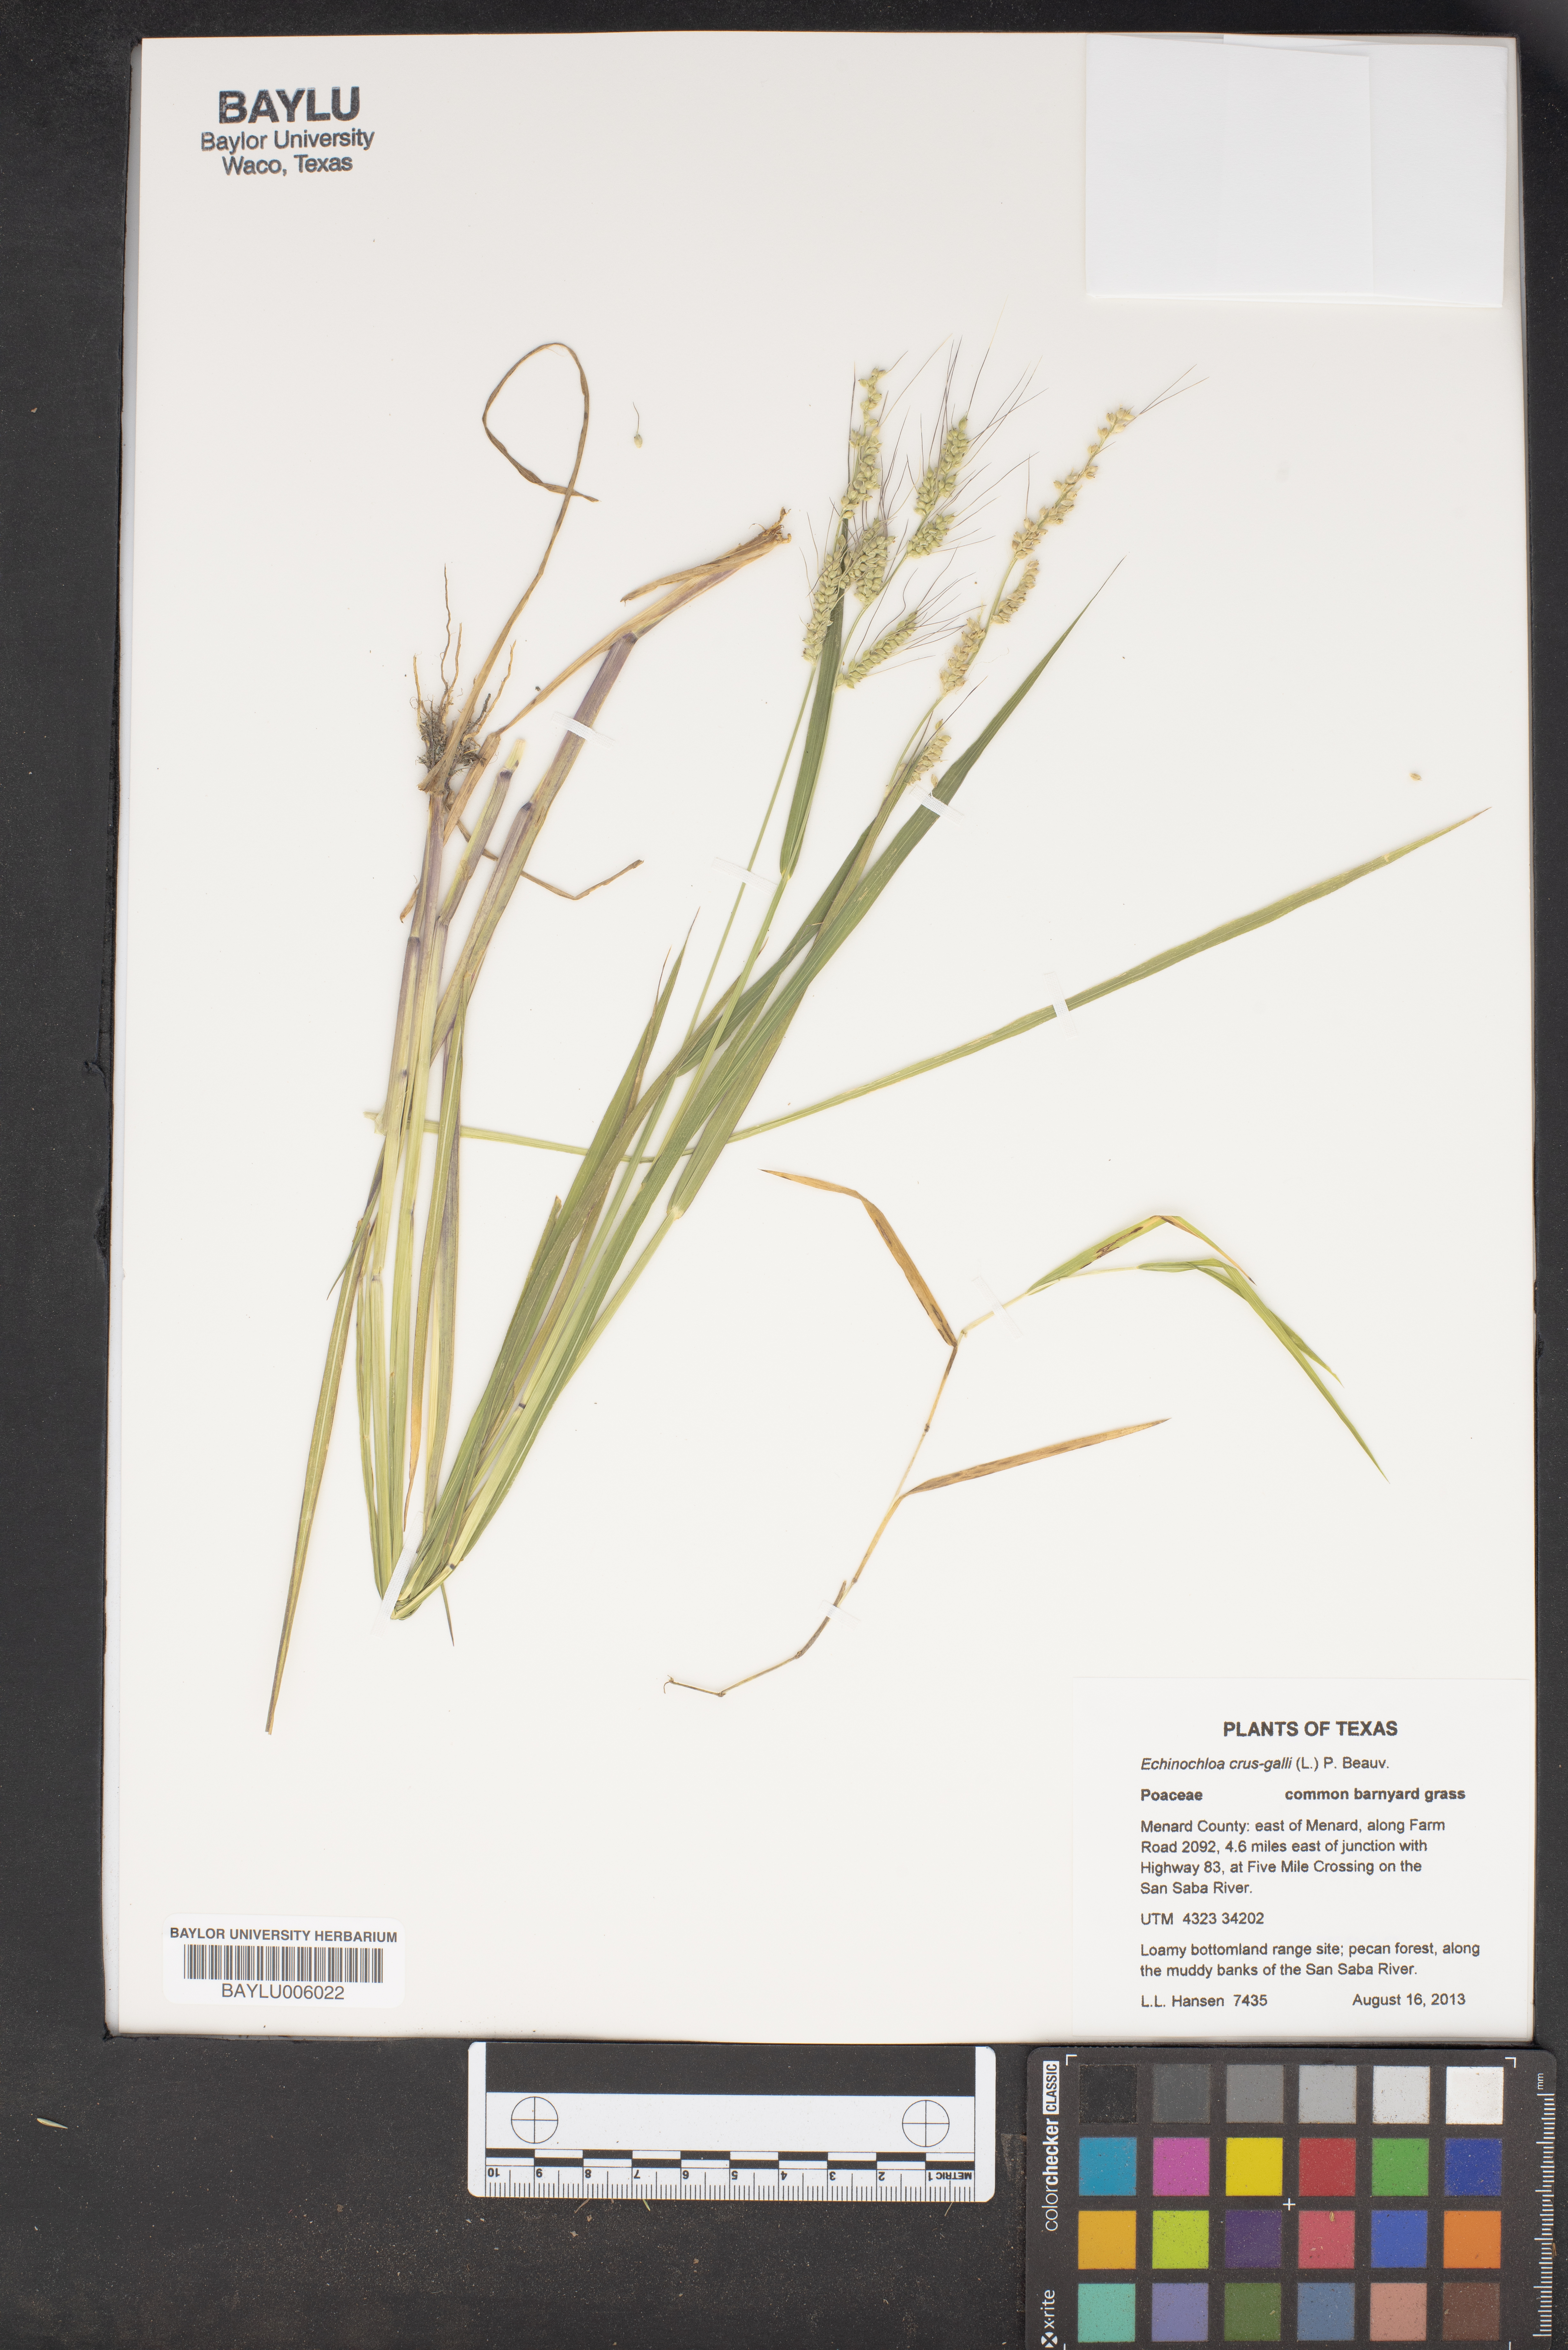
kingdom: Plantae
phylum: Tracheophyta
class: Liliopsida
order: Poales
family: Poaceae
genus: Echinochloa
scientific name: Echinochloa crus-galli
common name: Cockspur
